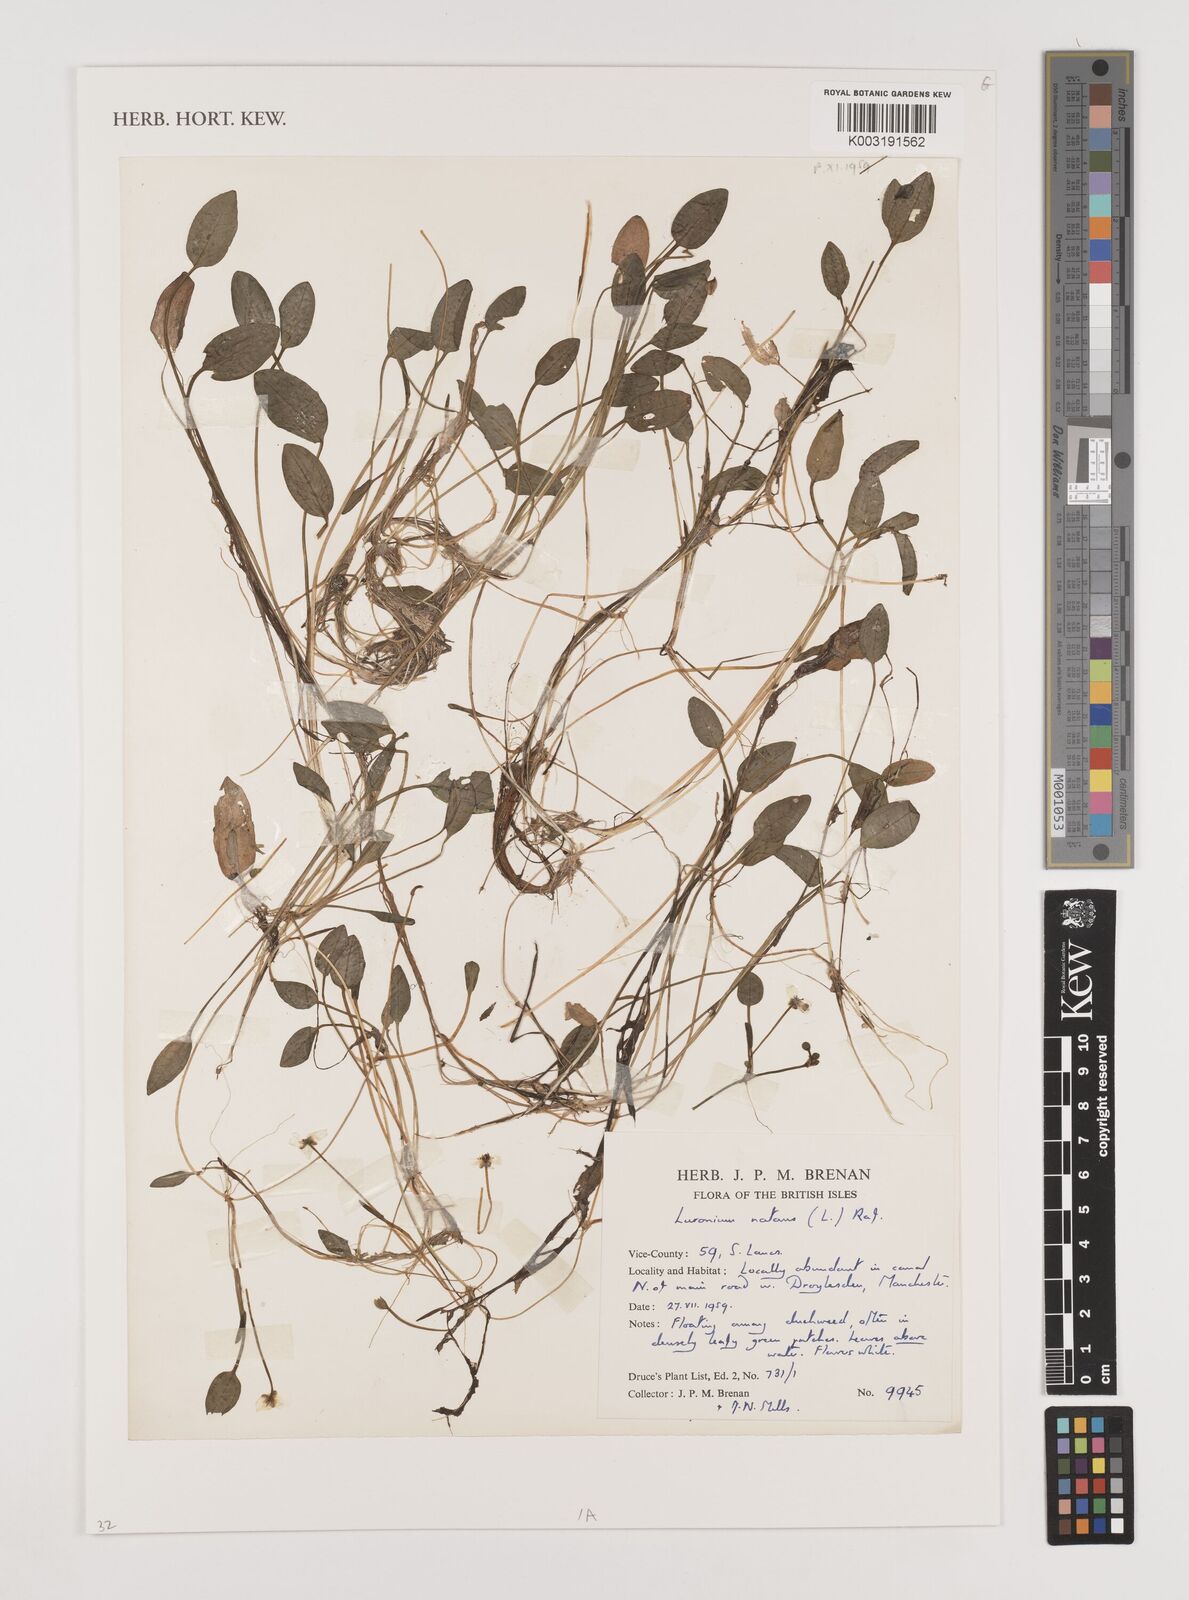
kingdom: Plantae
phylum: Tracheophyta
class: Liliopsida
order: Alismatales
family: Alismataceae
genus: Luronium
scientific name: Luronium natans
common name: Floating water-plantain
